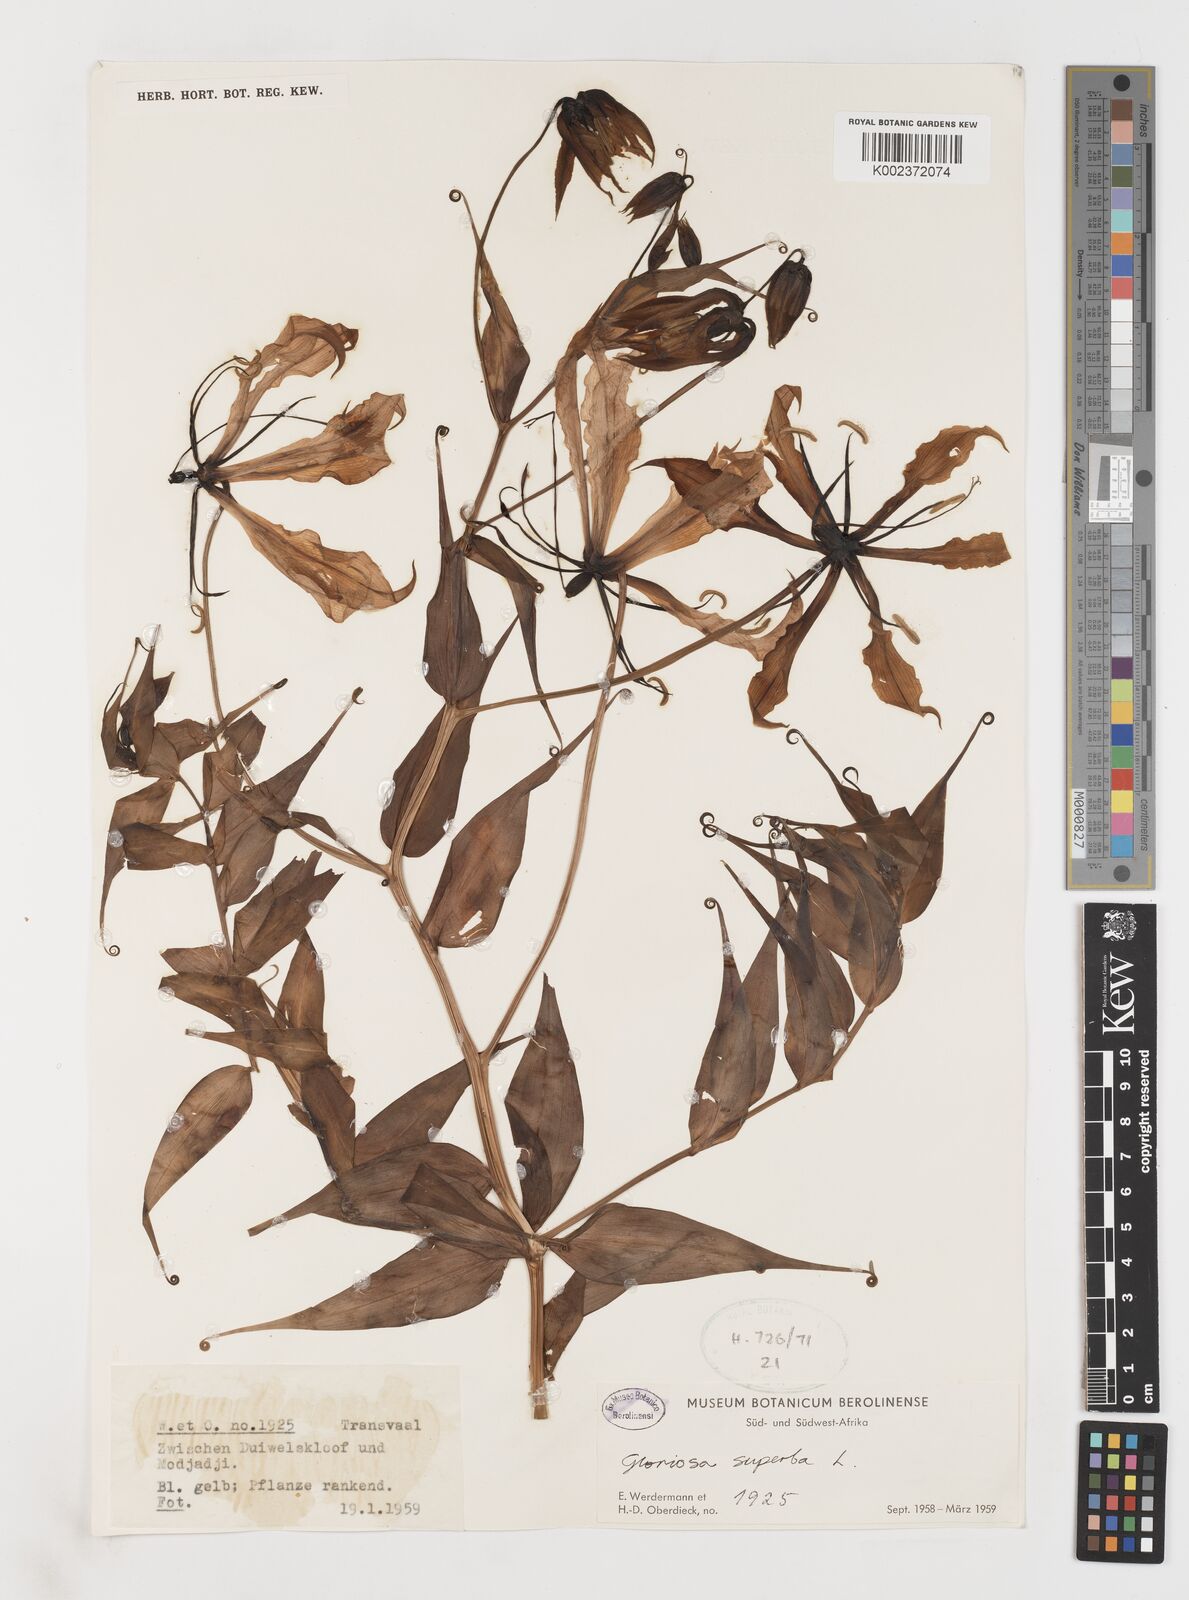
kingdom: Plantae
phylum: Tracheophyta
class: Liliopsida
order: Liliales
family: Colchicaceae
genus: Gloriosa
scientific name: Gloriosa simplex
